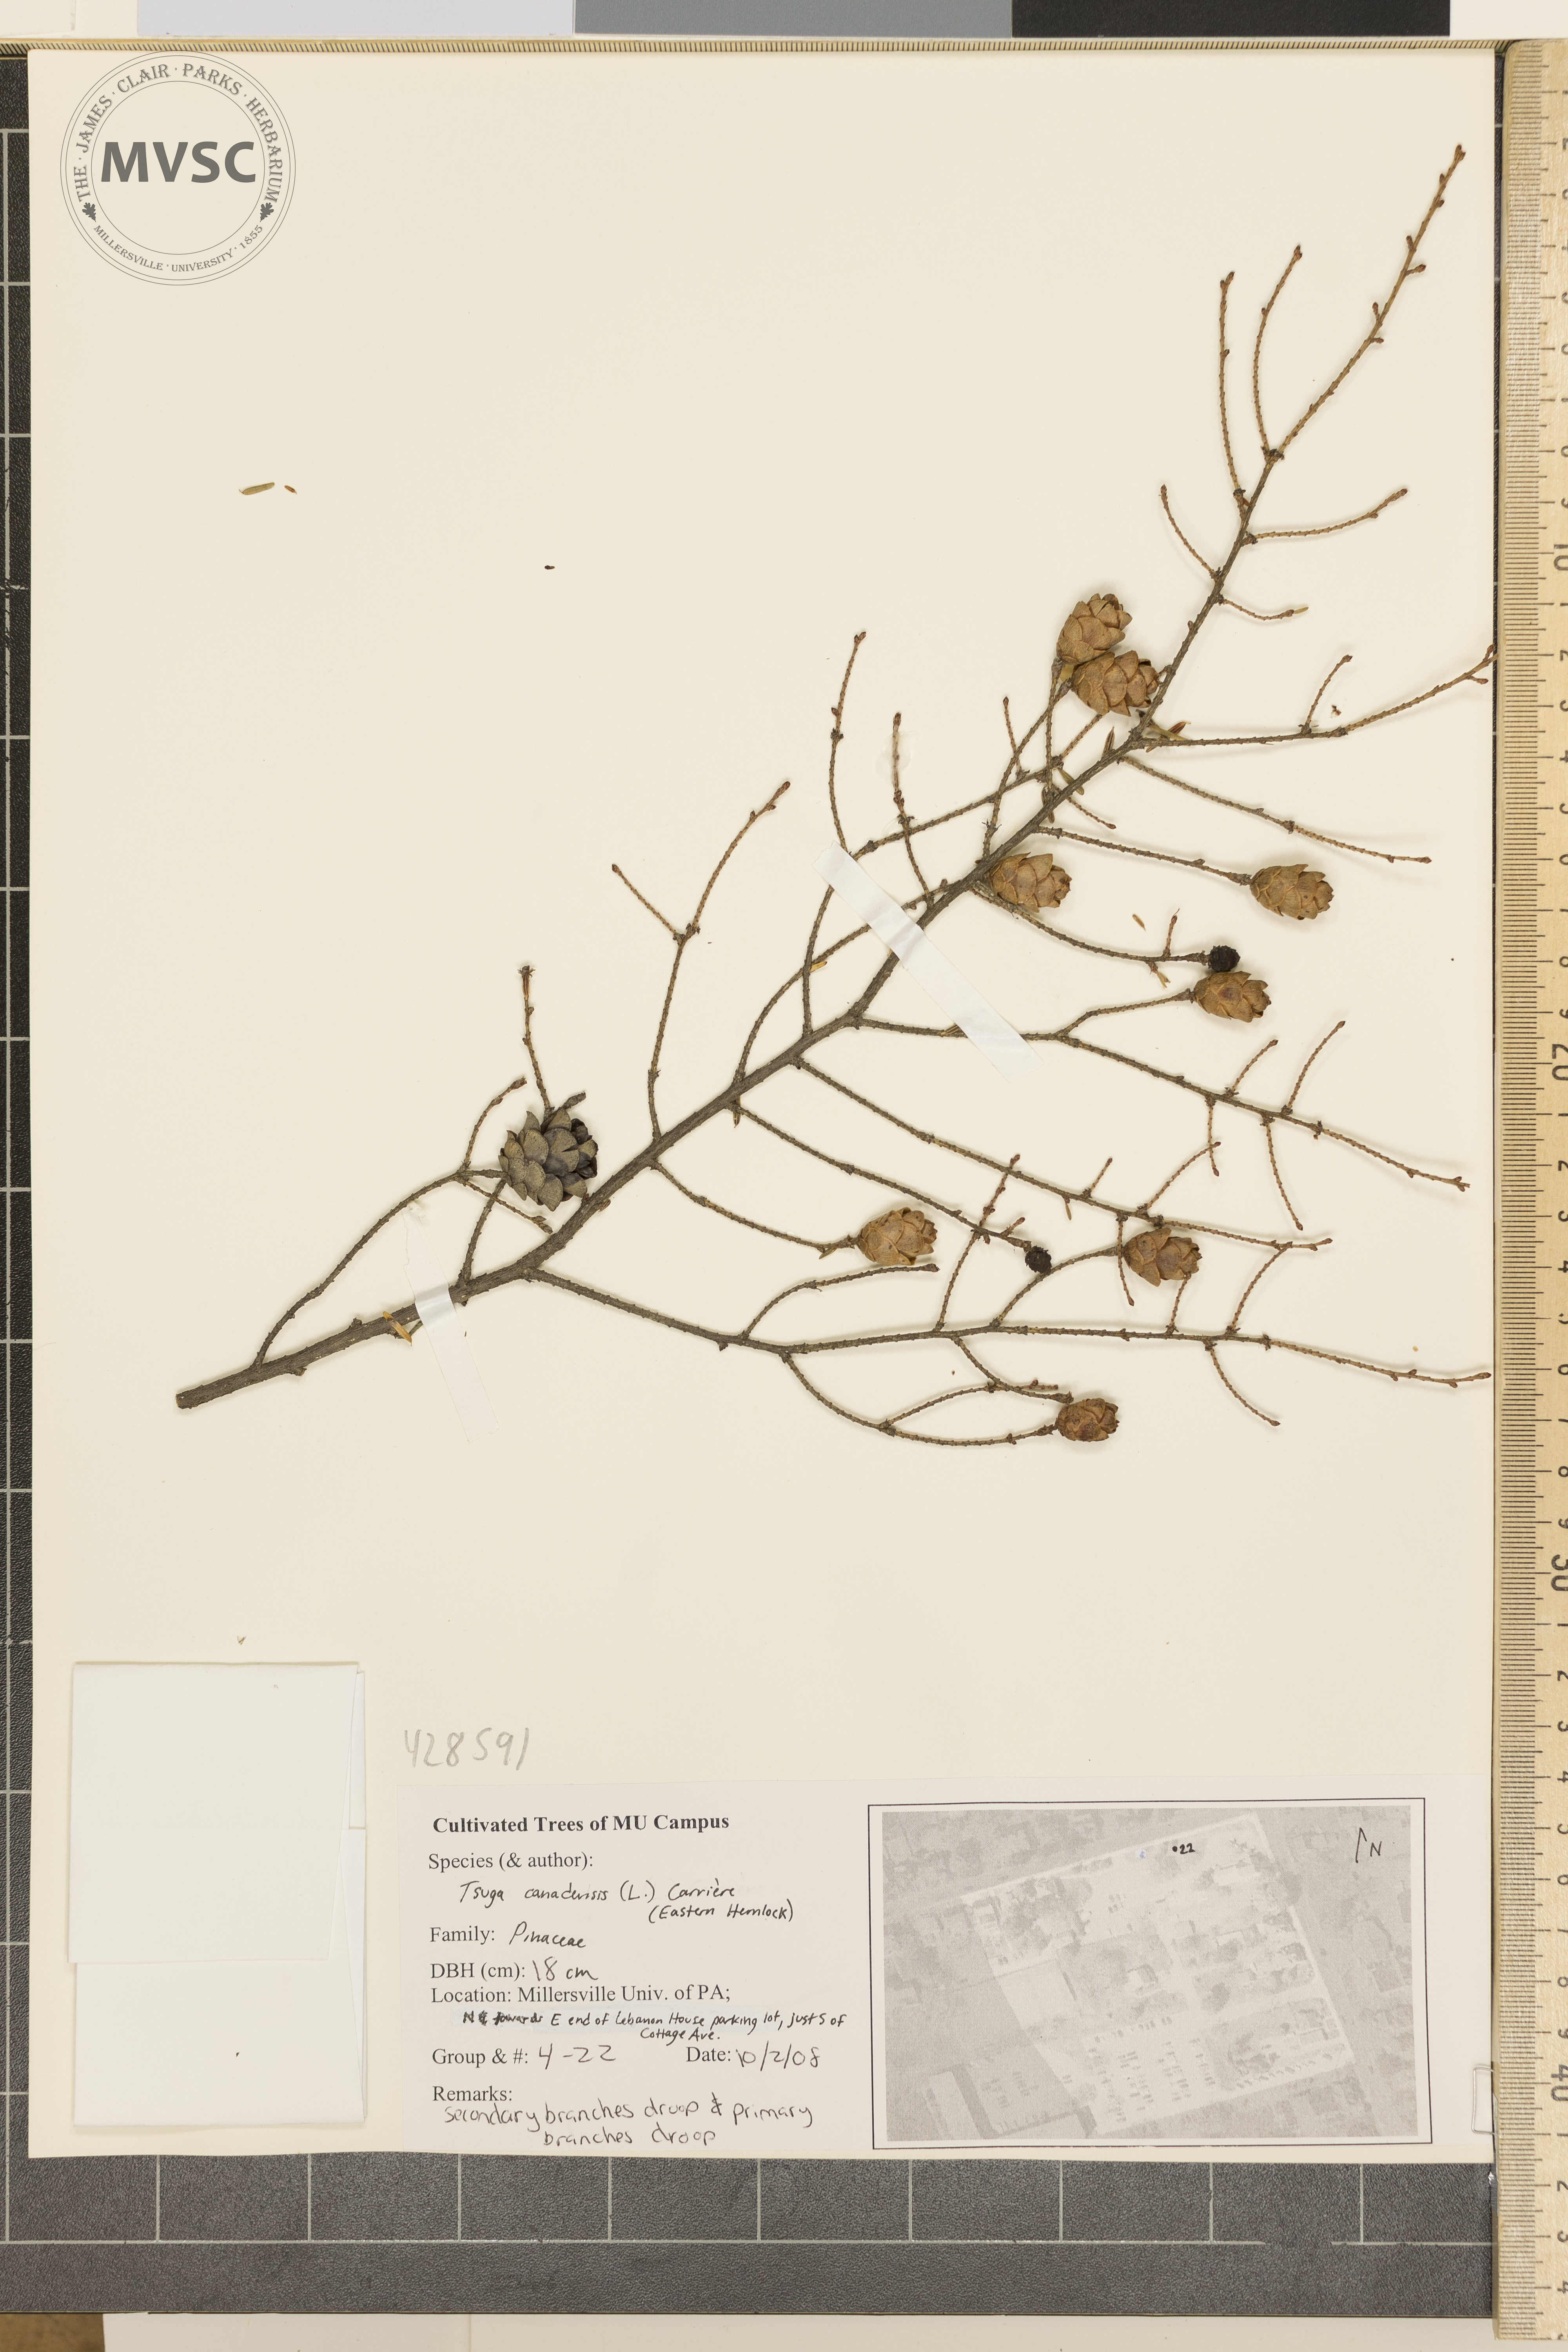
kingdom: Plantae
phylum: Tracheophyta
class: Pinopsida
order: Pinales
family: Pinaceae
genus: Tsuga
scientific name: Tsuga canadensis
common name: Canadian Hemlock
